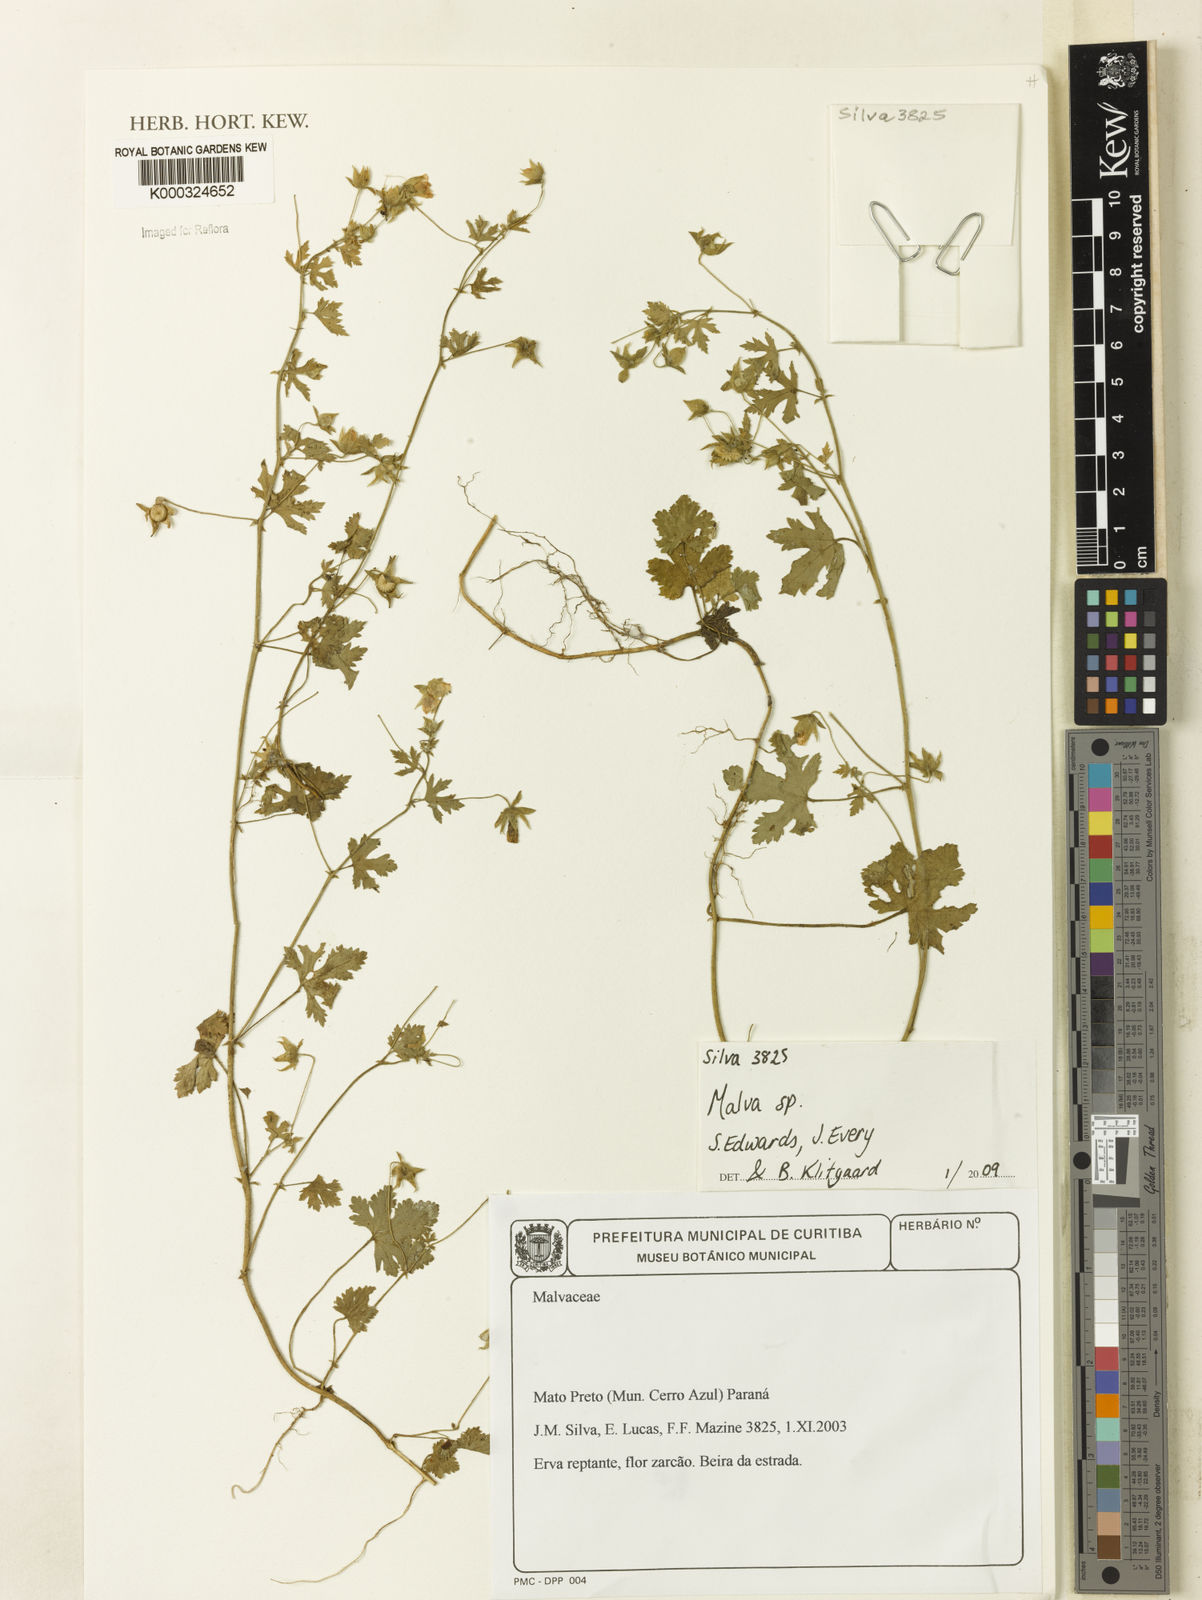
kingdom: Plantae
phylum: Tracheophyta
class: Magnoliopsida
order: Malvales
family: Malvaceae
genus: Malva
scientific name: Malva
